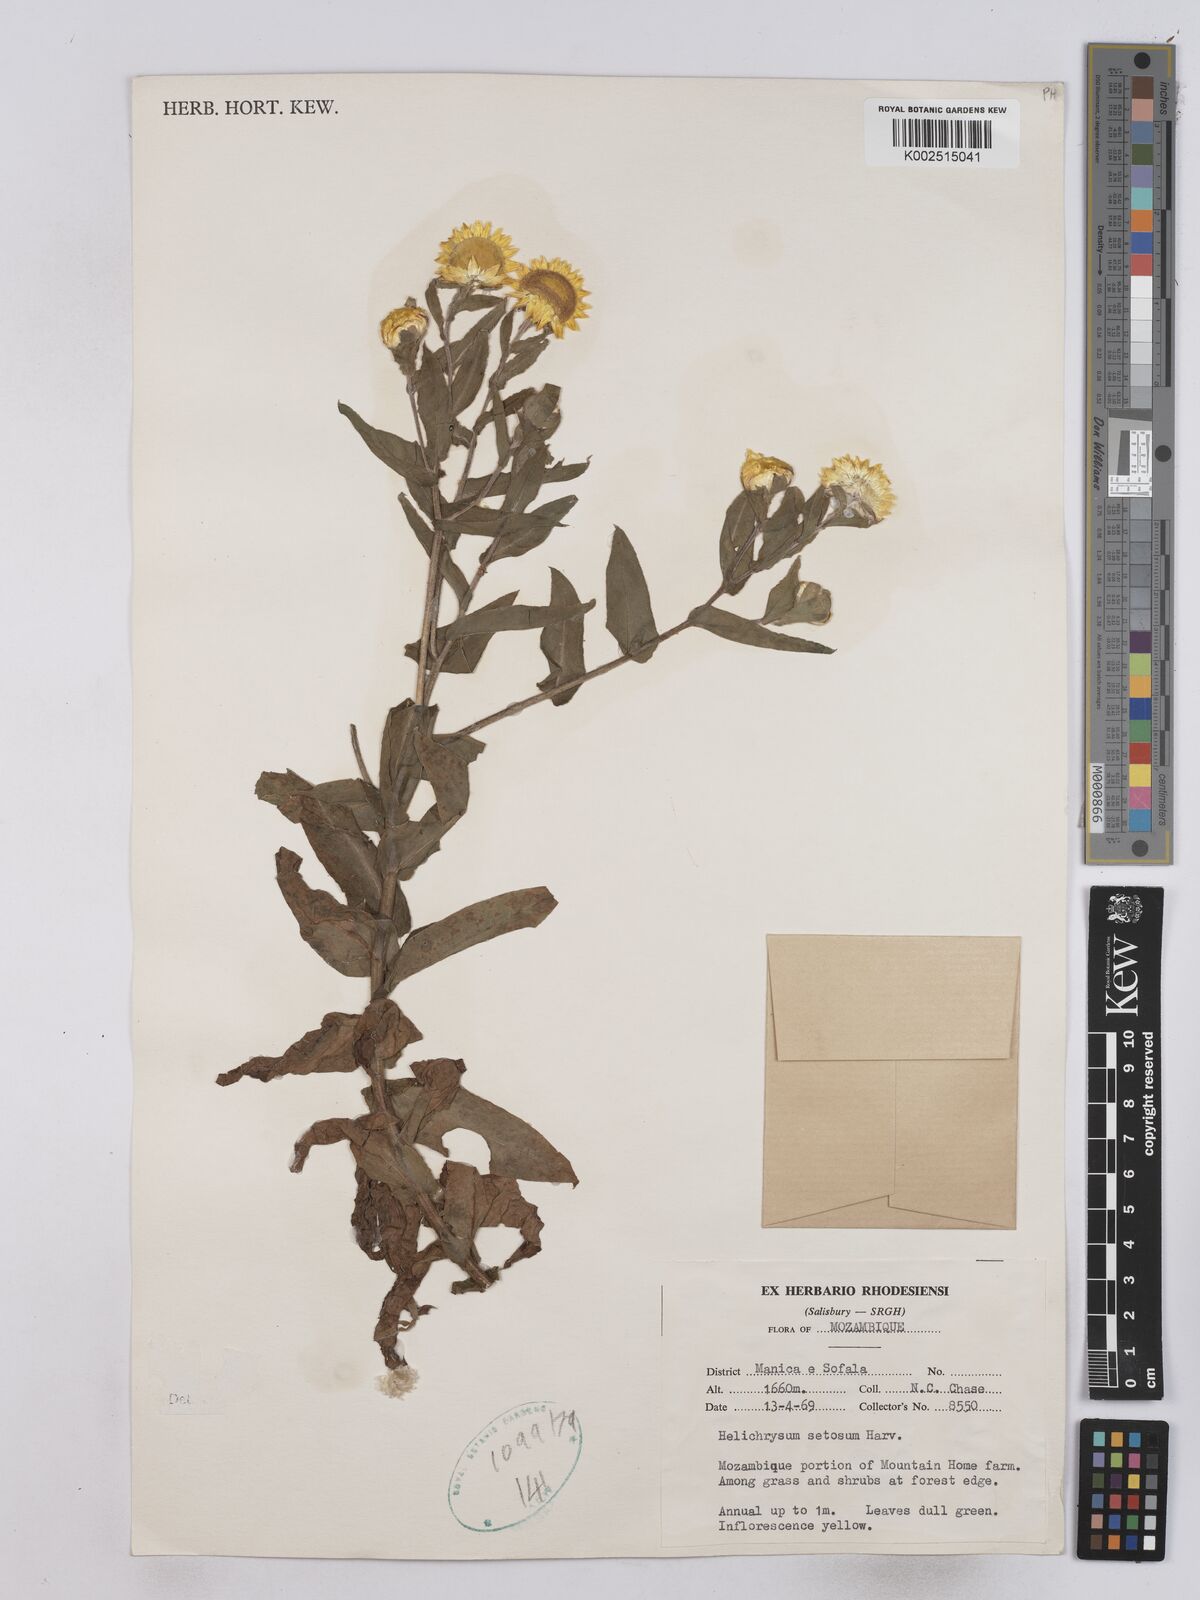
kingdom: Plantae
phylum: Tracheophyta
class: Magnoliopsida
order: Asterales
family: Asteraceae
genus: Helichrysum
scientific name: Helichrysum setosum
